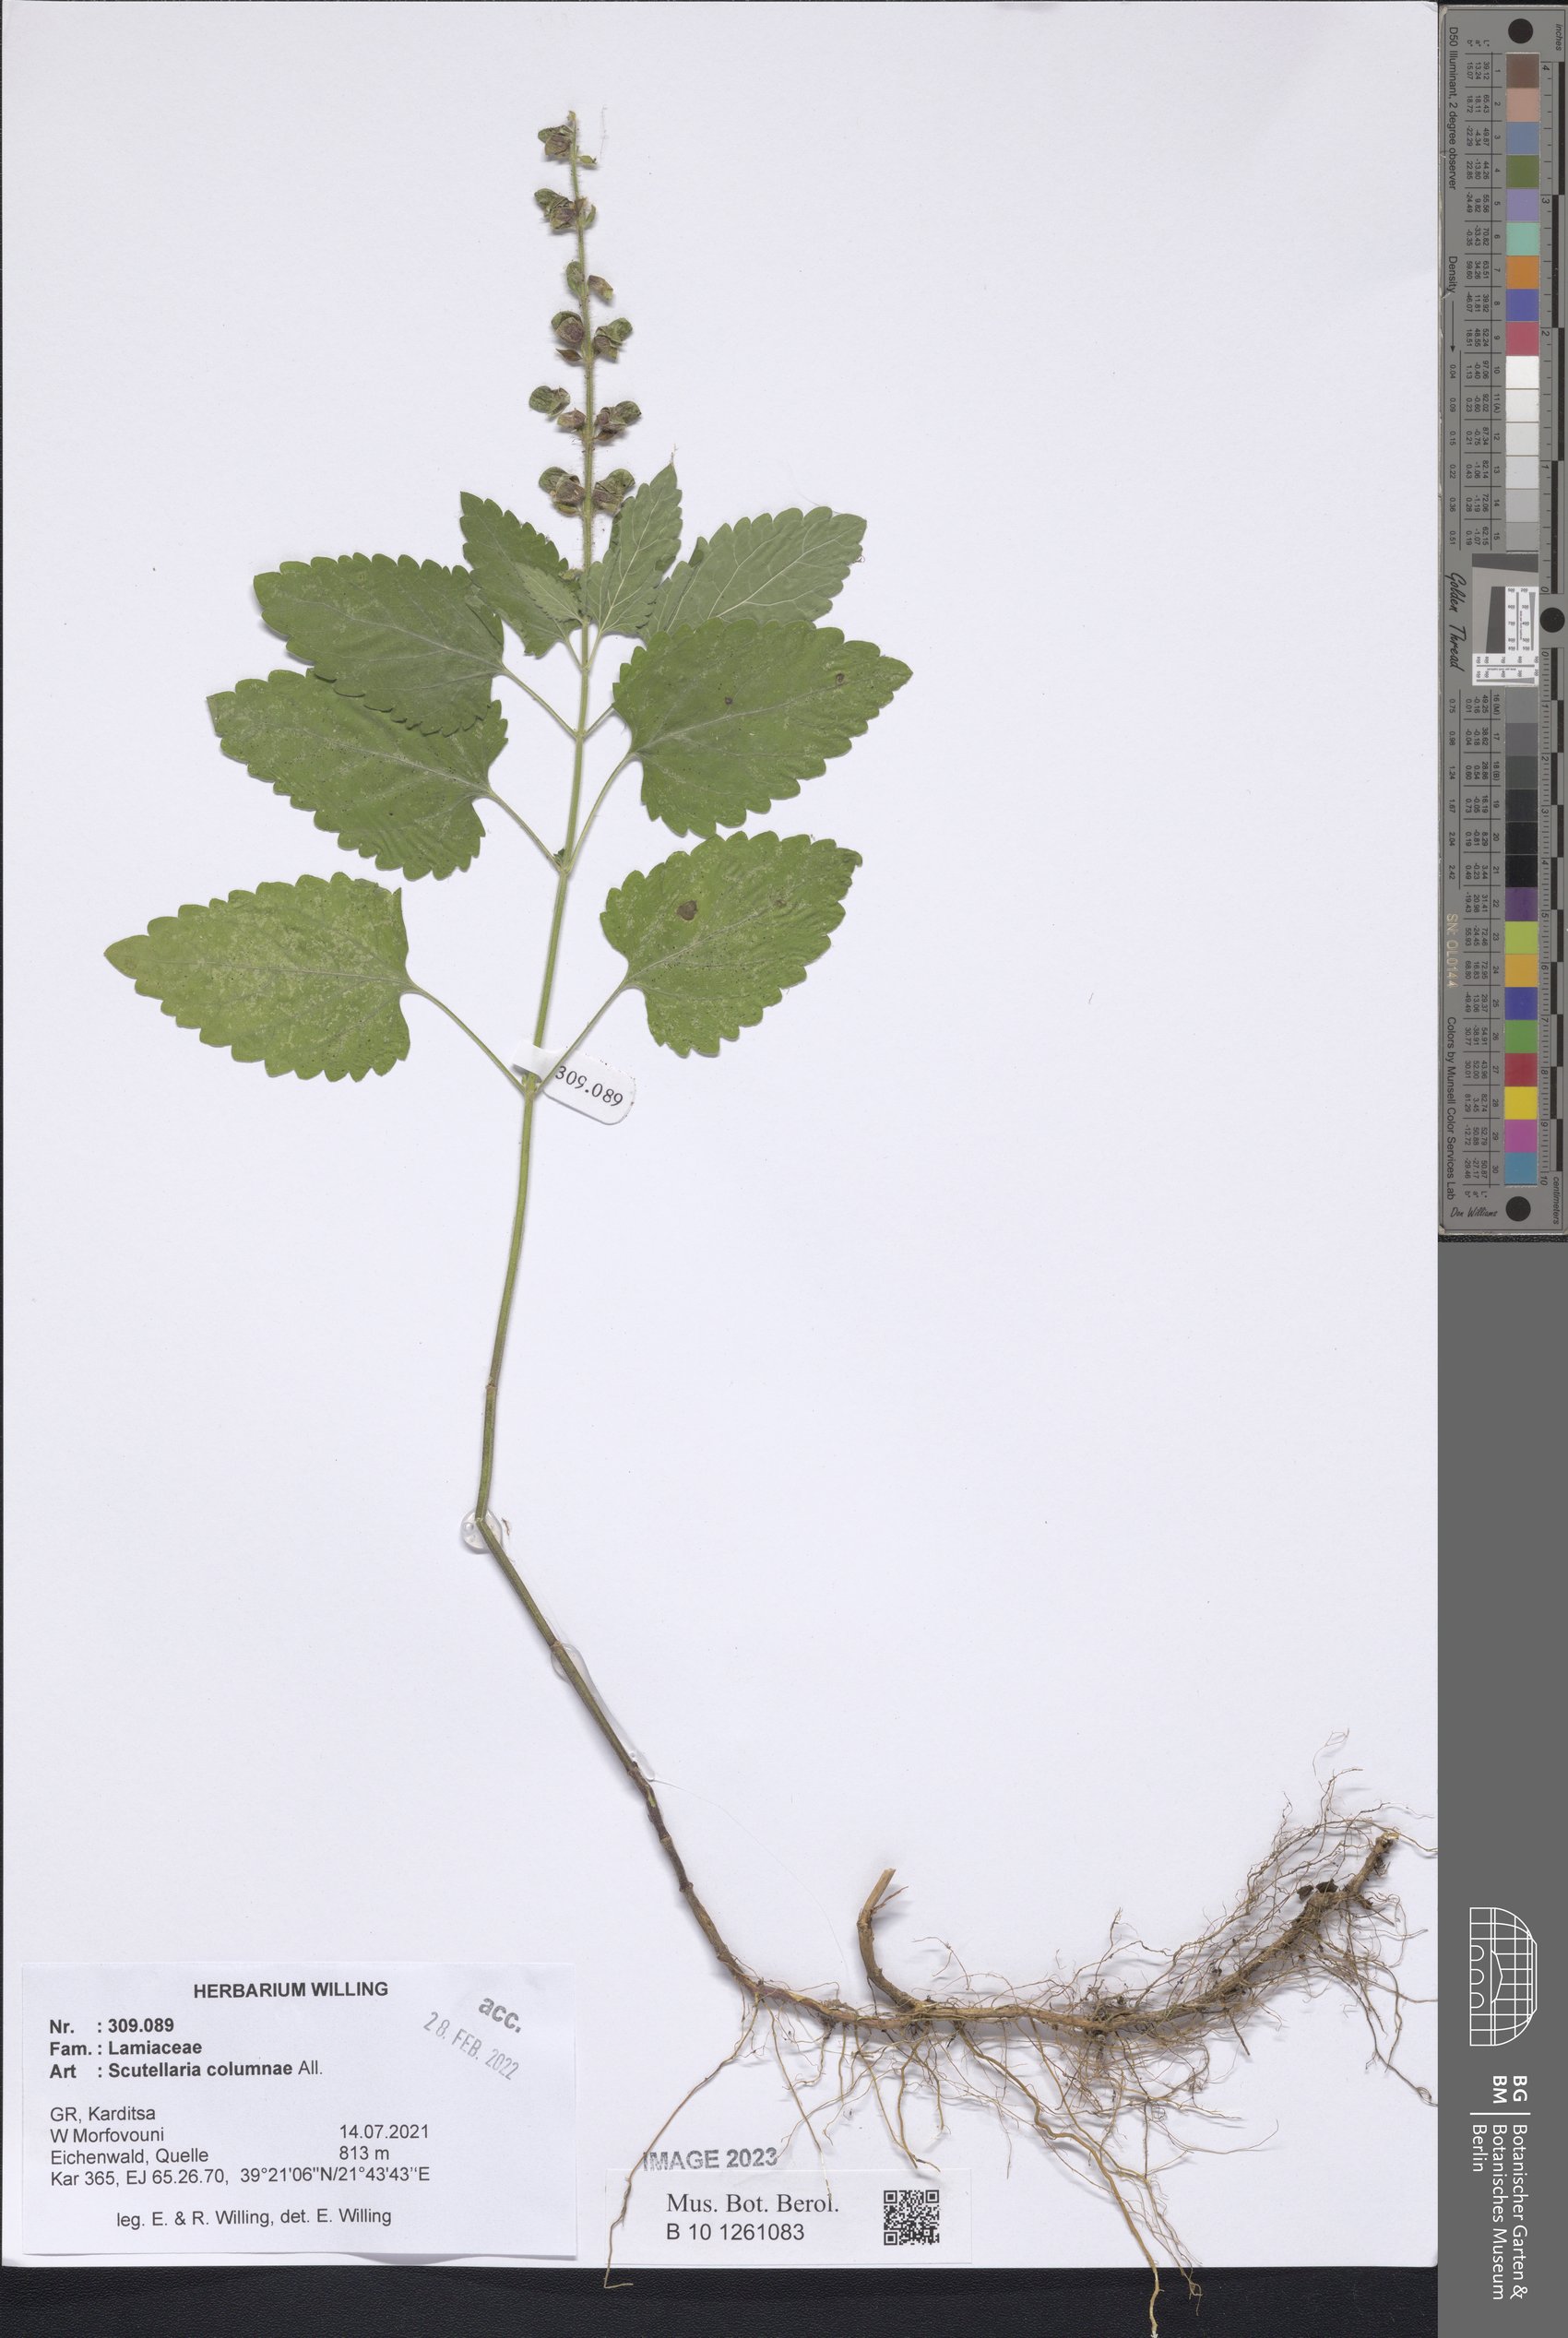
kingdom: Plantae
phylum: Tracheophyta
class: Magnoliopsida
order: Lamiales
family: Lamiaceae
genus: Scutellaria
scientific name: Scutellaria columnae
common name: Large skullcap
